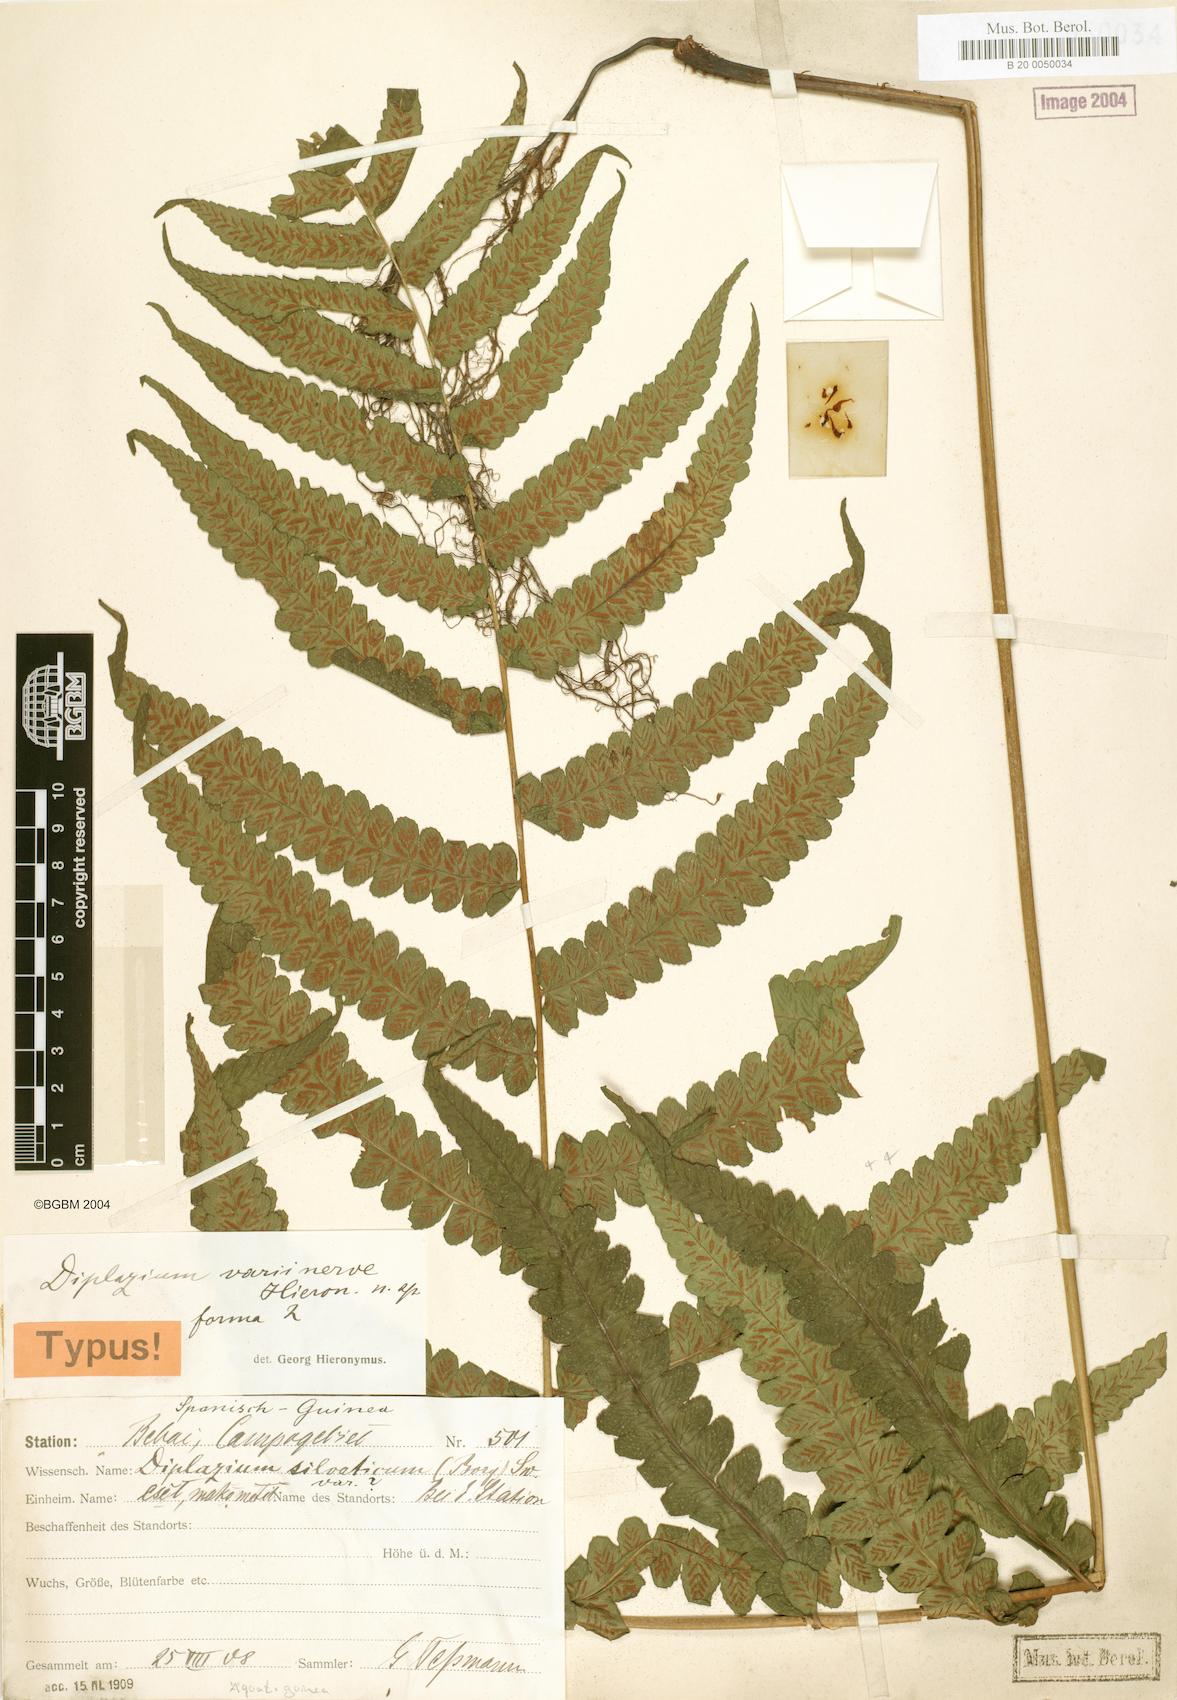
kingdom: Plantae
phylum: Tracheophyta
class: Polypodiopsida
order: Polypodiales
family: Athyriaceae
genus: Diplazium
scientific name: Diplazium welwitschii
